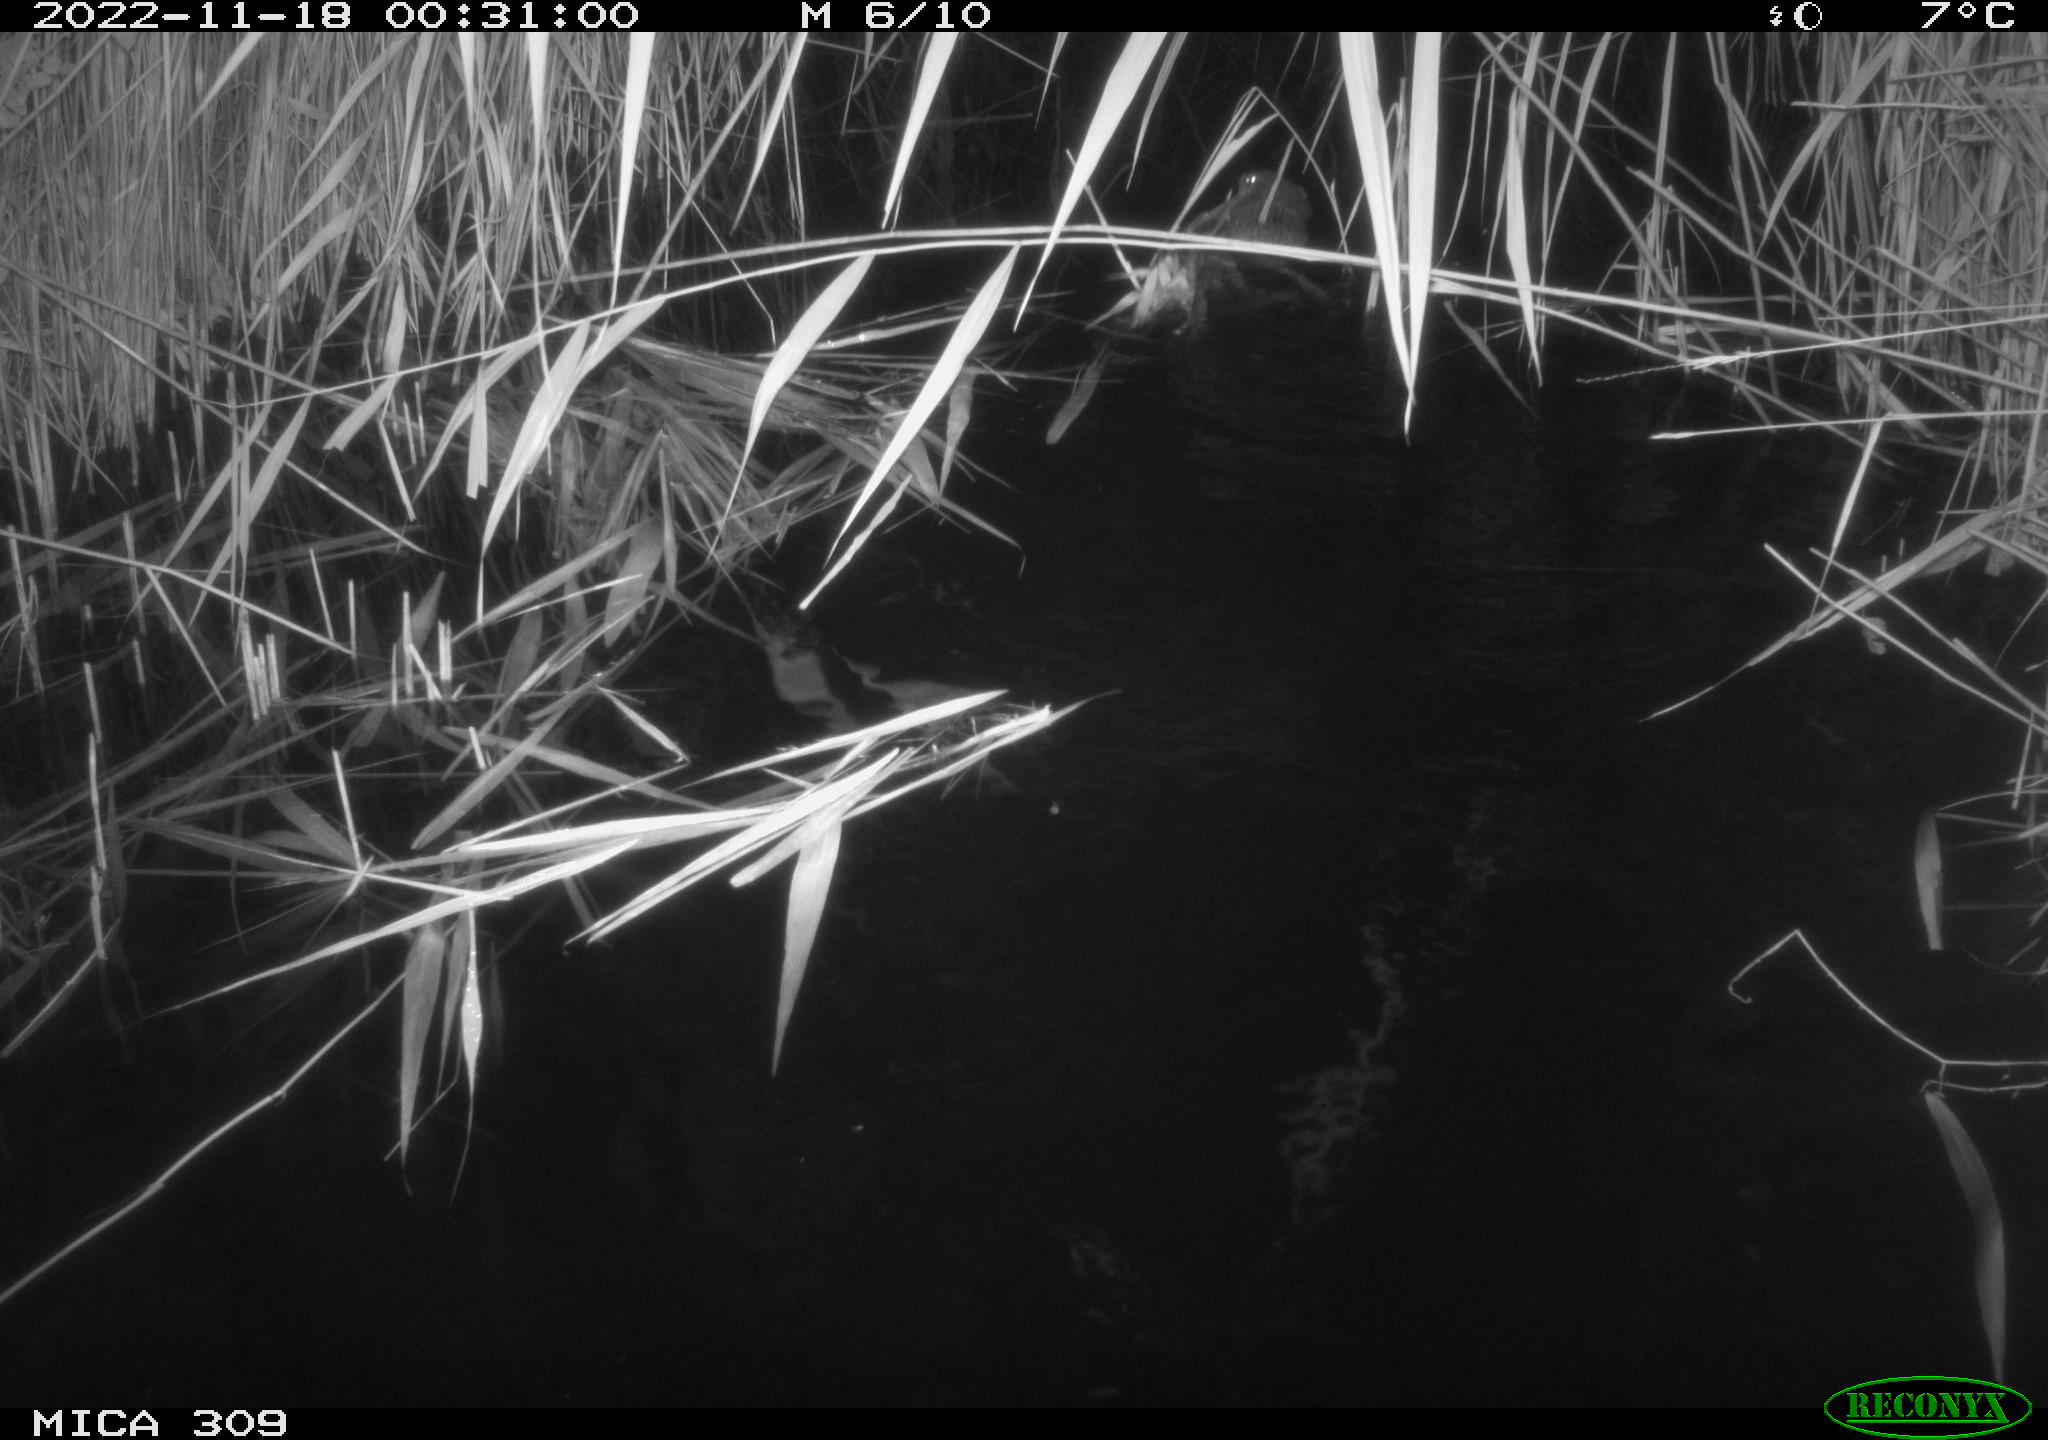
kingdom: Animalia
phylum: Chordata
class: Mammalia
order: Rodentia
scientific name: Rodentia
